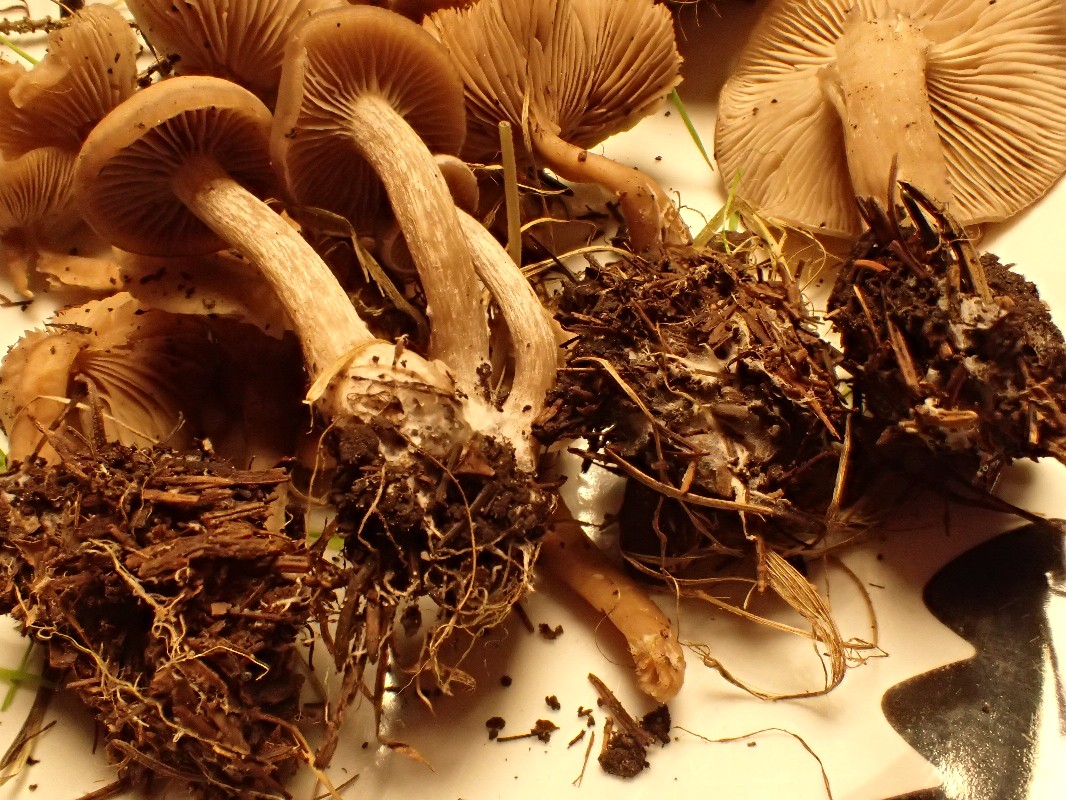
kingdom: Fungi
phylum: Basidiomycota
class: Agaricomycetes
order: Agaricales
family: Tricholomataceae
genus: Clitocybe
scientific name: Clitocybe fragrans
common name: vellugtende tragthat
